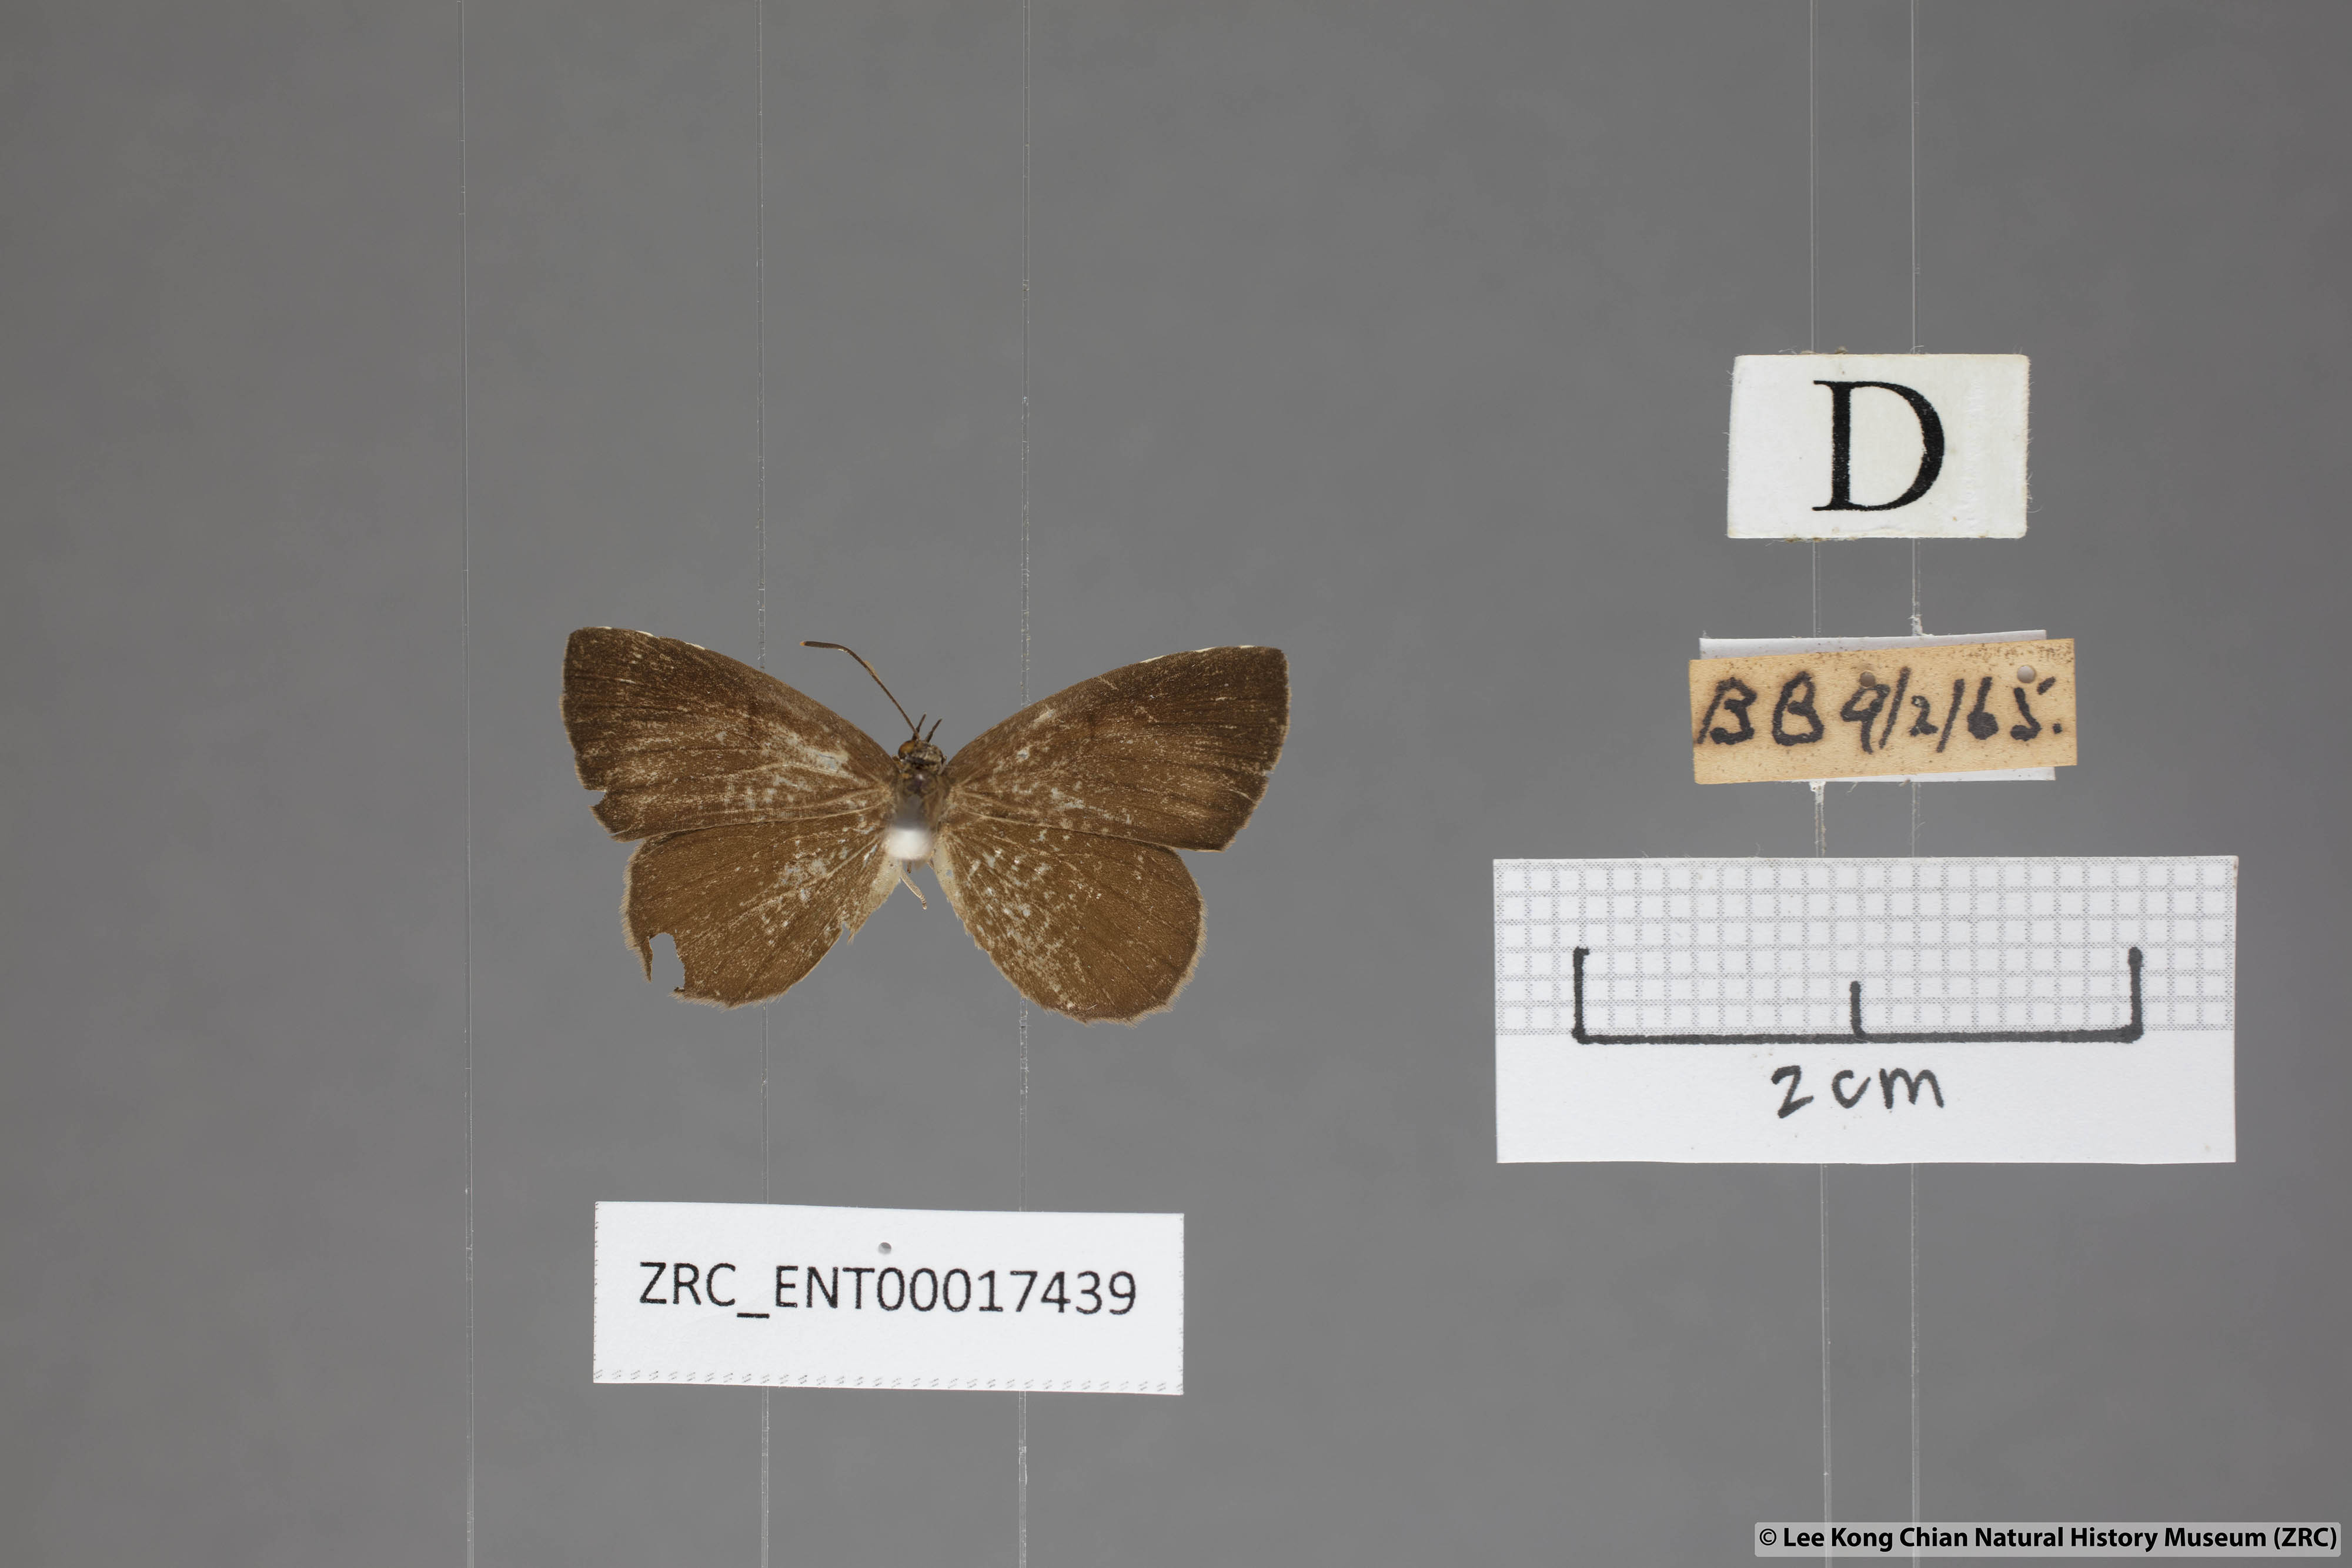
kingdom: Animalia
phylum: Arthropoda
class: Insecta
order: Lepidoptera
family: Lycaenidae
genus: Miletus
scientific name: Miletus gaesa
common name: Brown brownie
